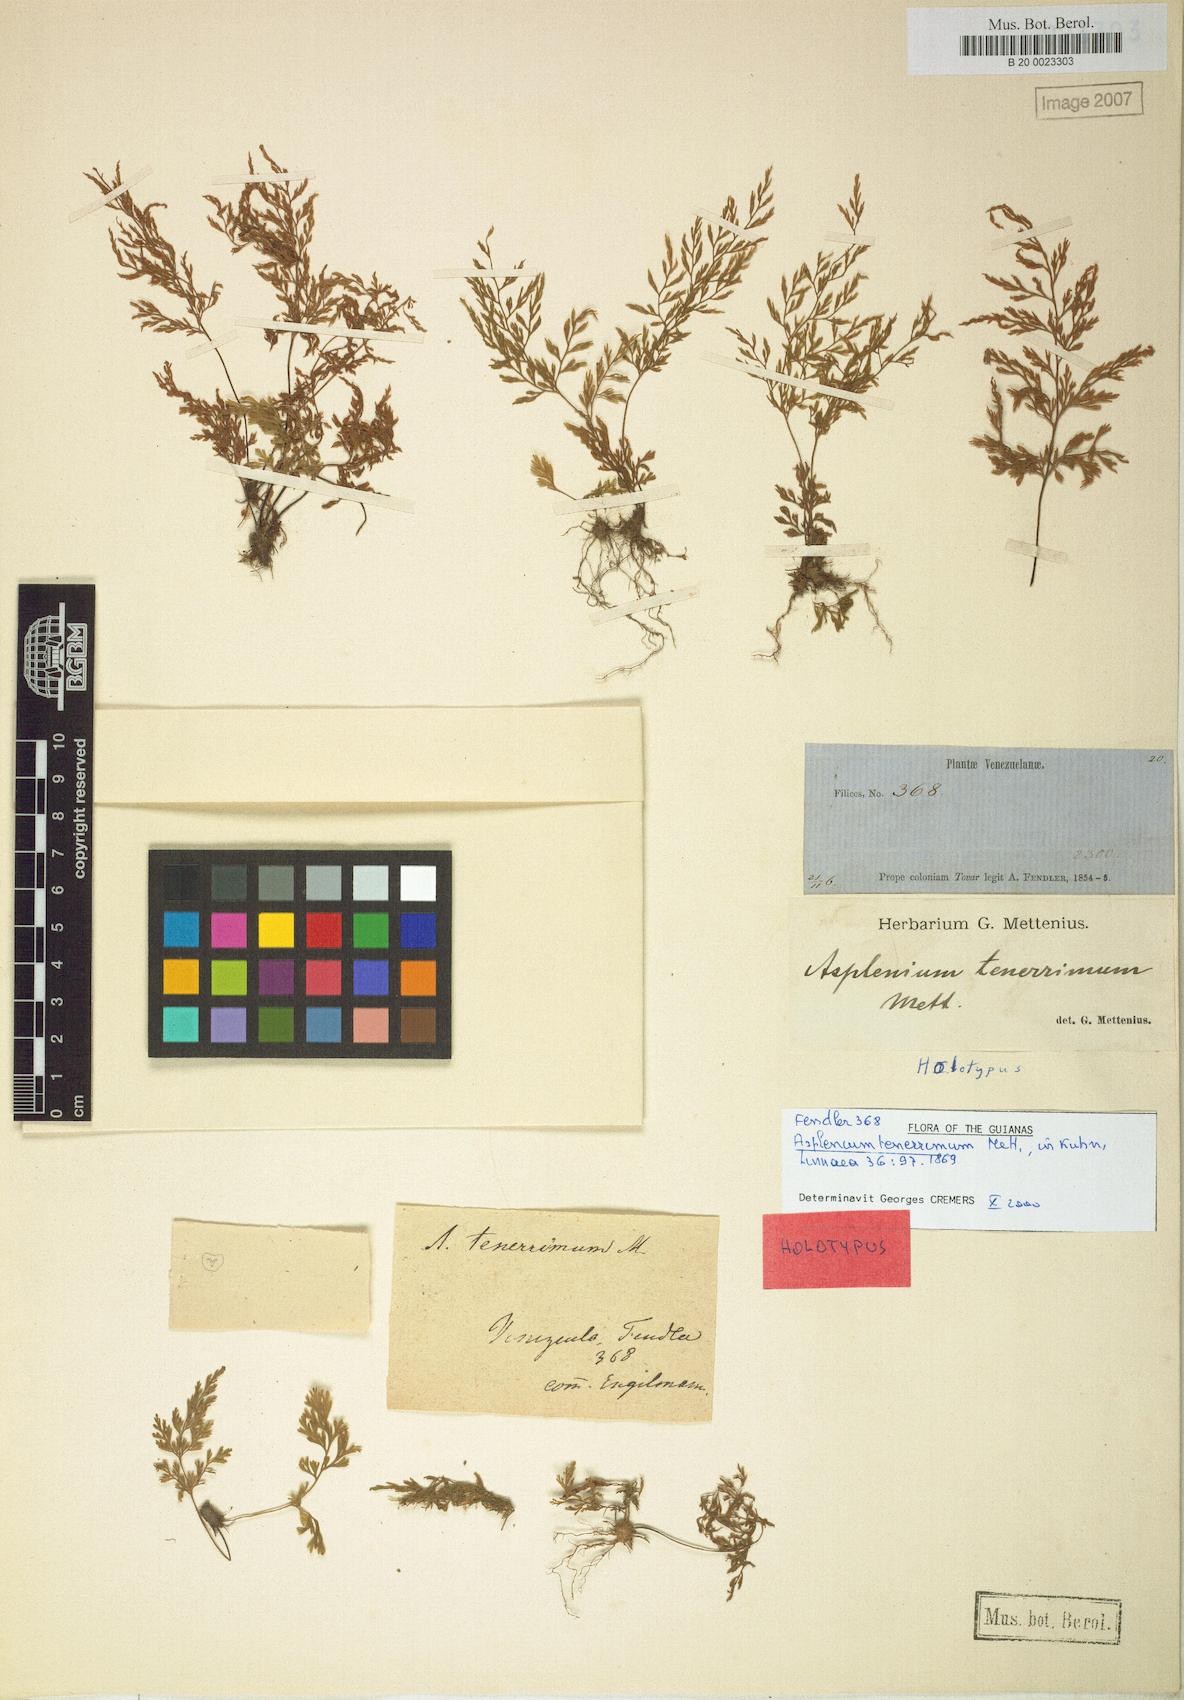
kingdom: Plantae
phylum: Tracheophyta
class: Polypodiopsida
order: Polypodiales
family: Aspleniaceae
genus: Asplenium
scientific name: Asplenium tenerrimum
